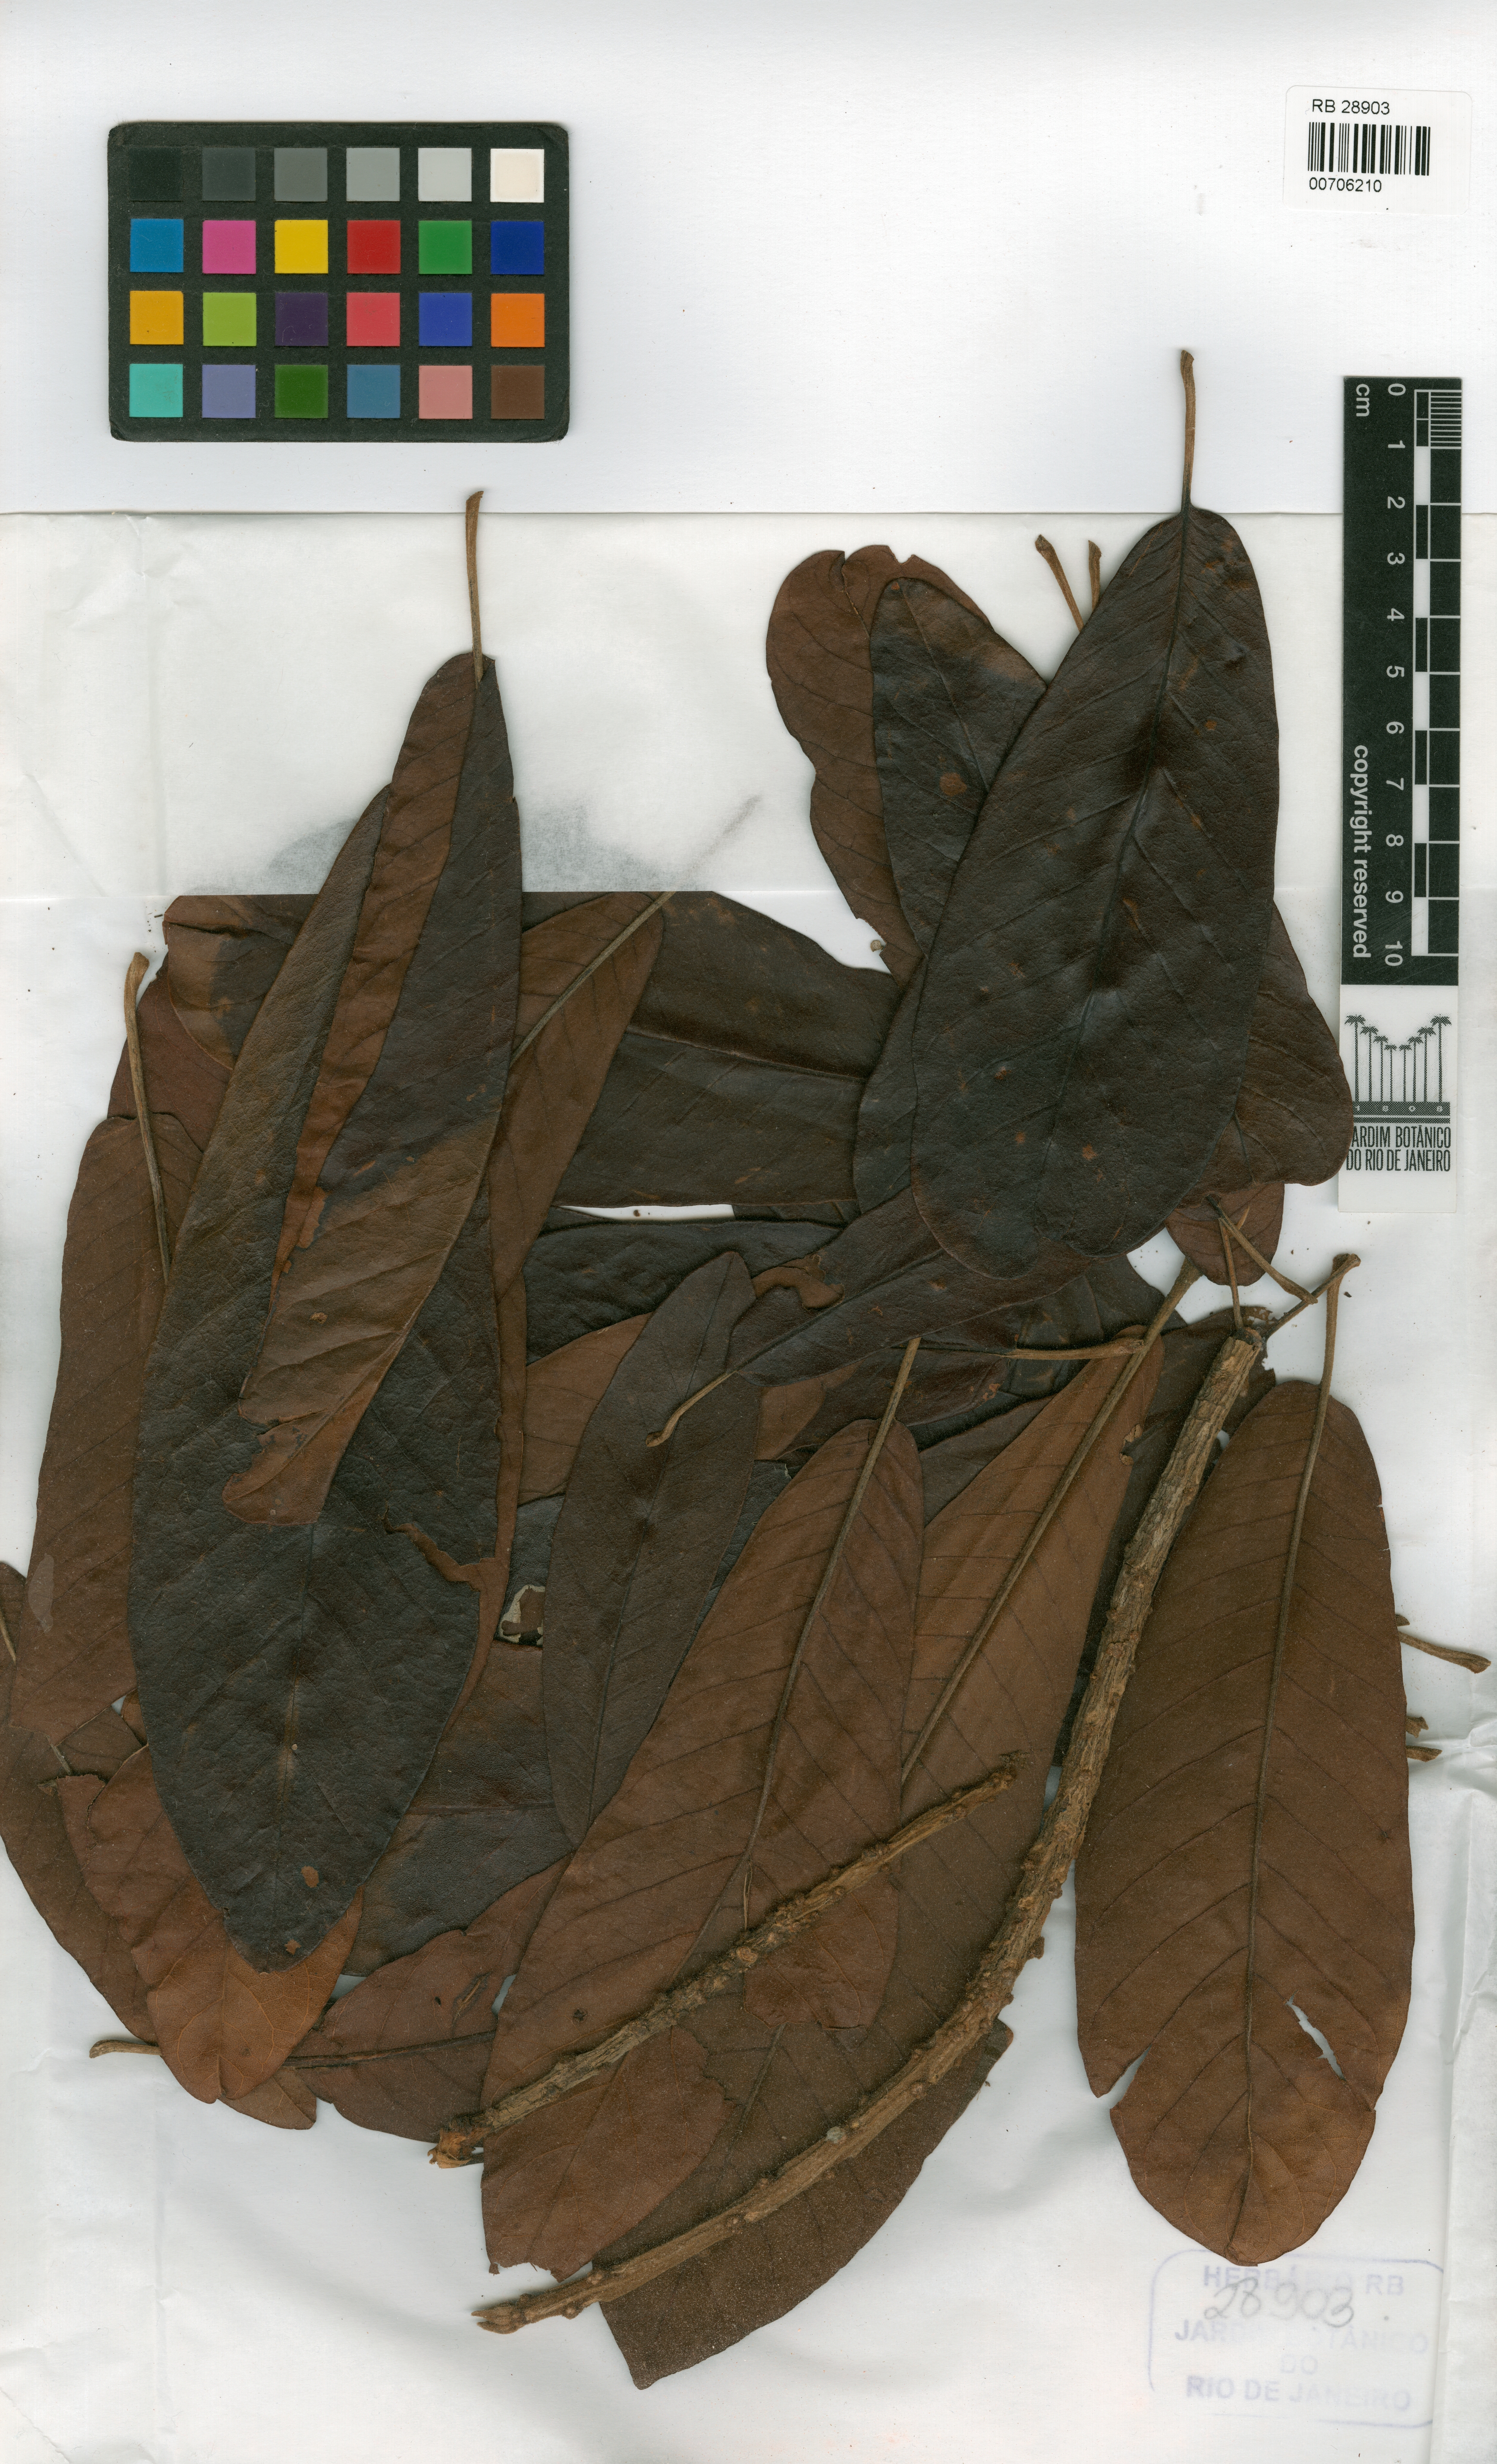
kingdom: Plantae
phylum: Tracheophyta
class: Magnoliopsida
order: Ericales
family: Sapotaceae
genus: Pouteria
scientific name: Pouteria butyrocarpa
